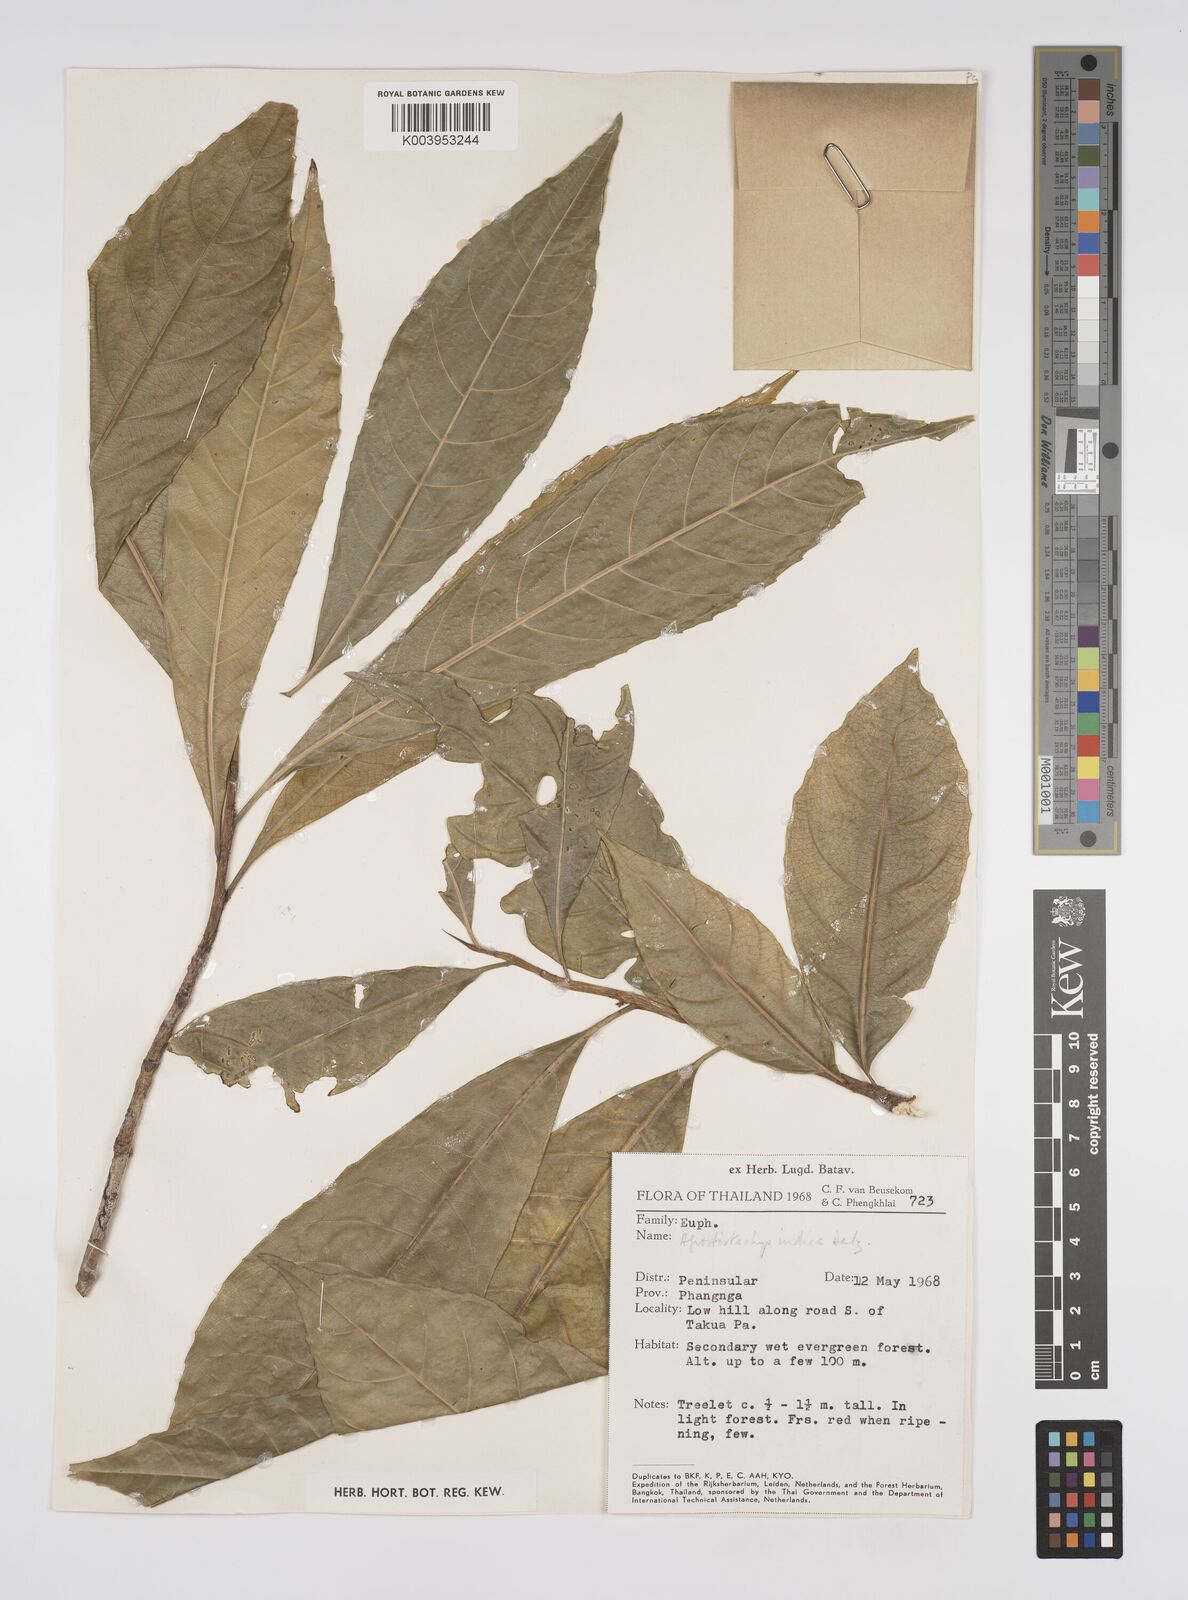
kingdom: Plantae
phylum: Tracheophyta
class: Magnoliopsida
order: Malpighiales
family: Euphorbiaceae
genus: Agrostistachys
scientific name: Agrostistachys indica
